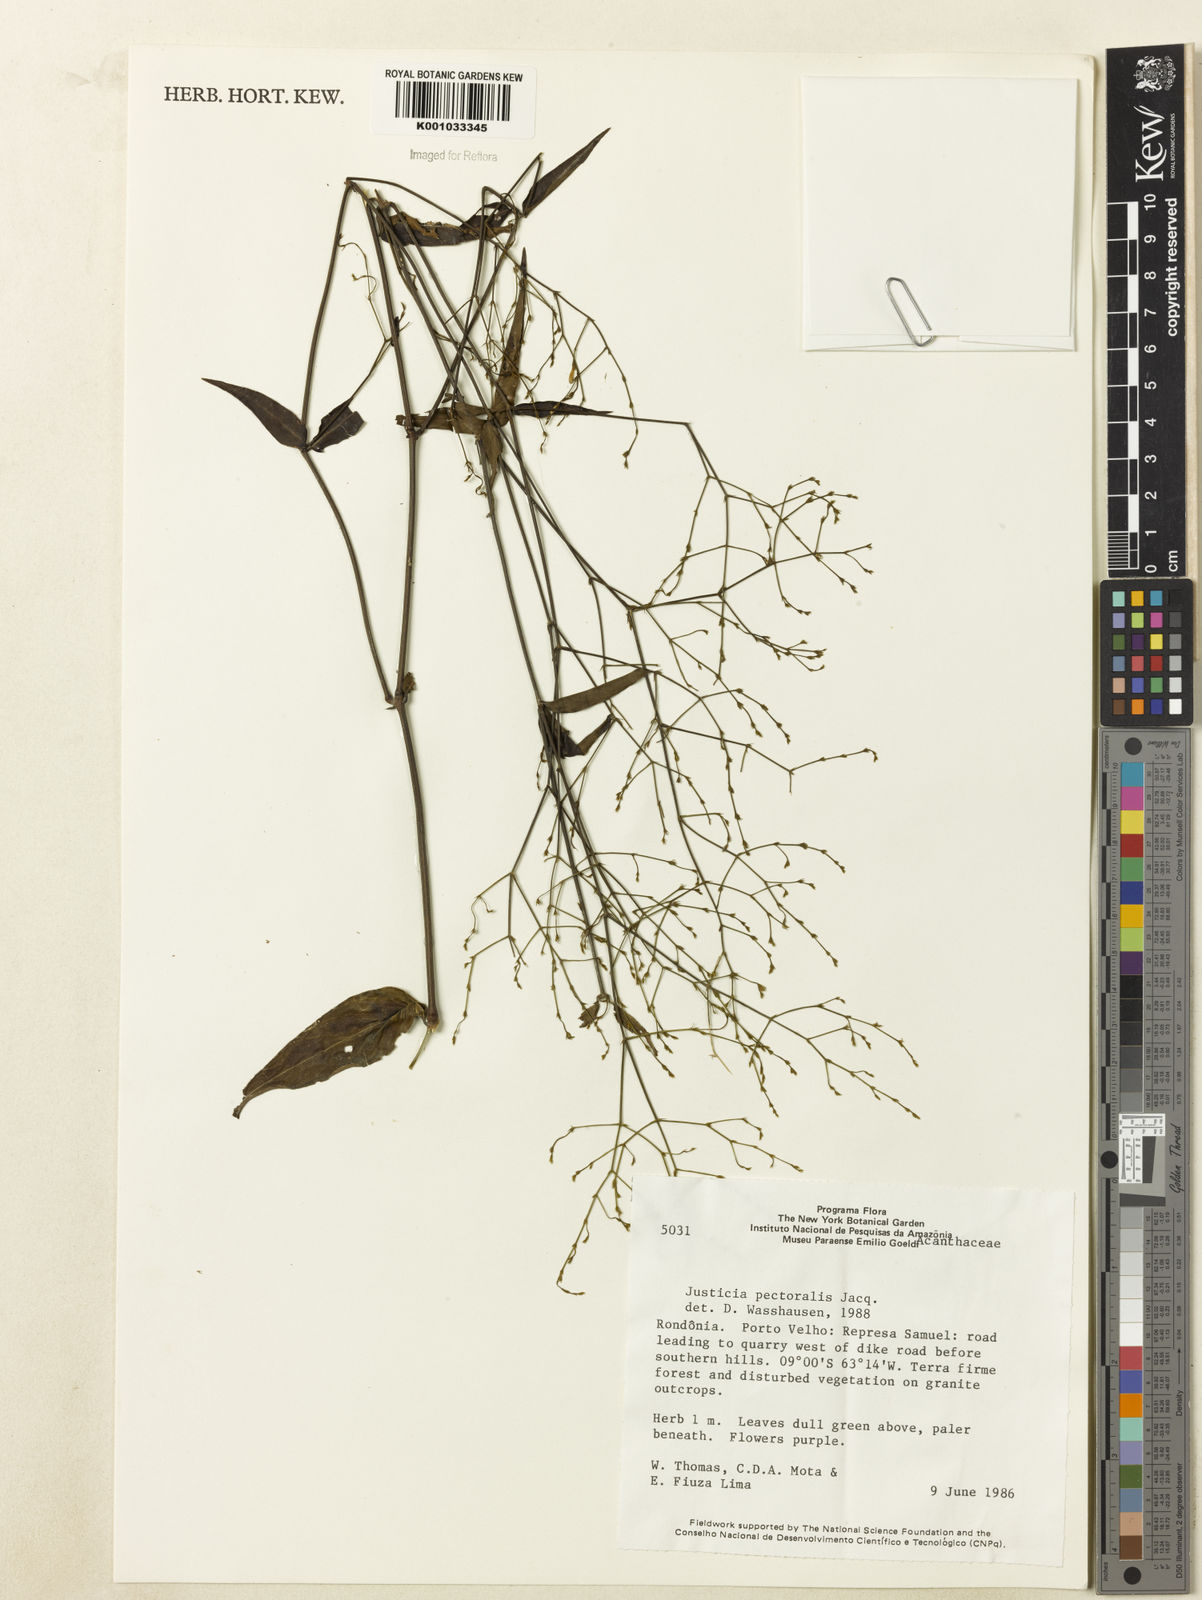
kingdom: Plantae
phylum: Tracheophyta
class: Magnoliopsida
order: Lamiales
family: Acanthaceae
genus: Dianthera
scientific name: Dianthera pectoralis
